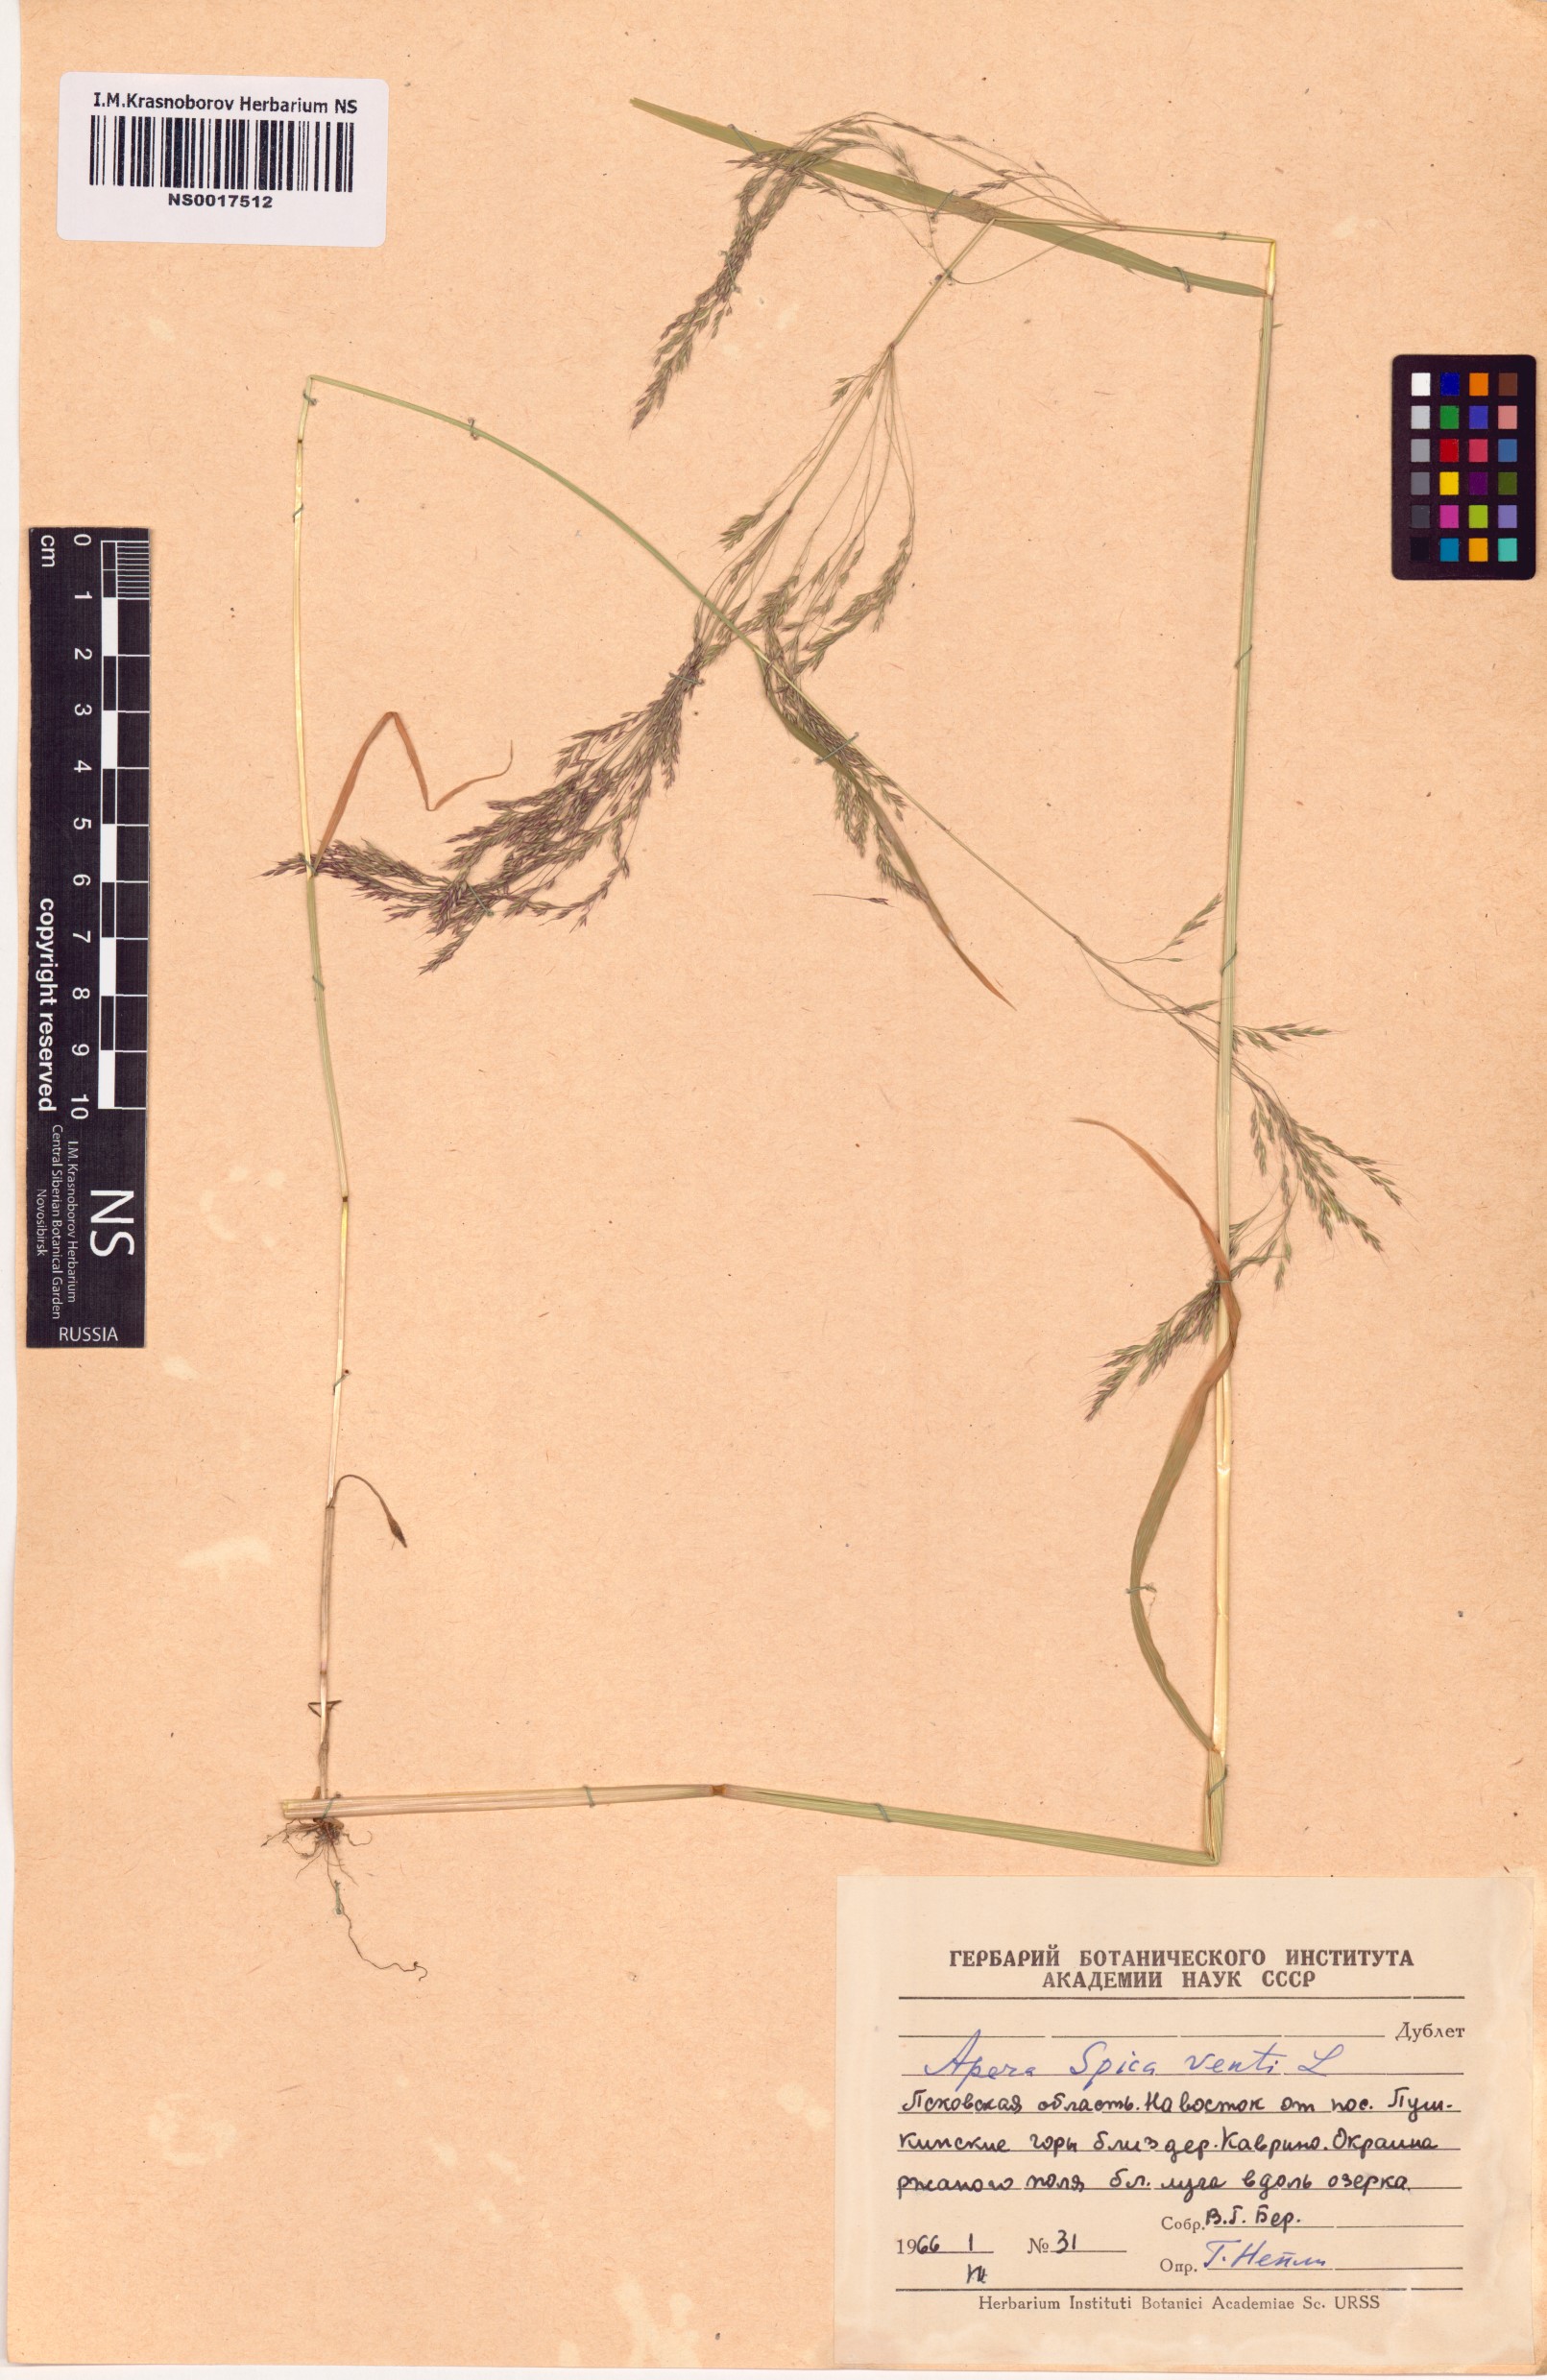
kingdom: Plantae
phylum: Tracheophyta
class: Liliopsida
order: Poales
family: Poaceae
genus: Apera
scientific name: Apera spica-venti
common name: Loose silky-bent
